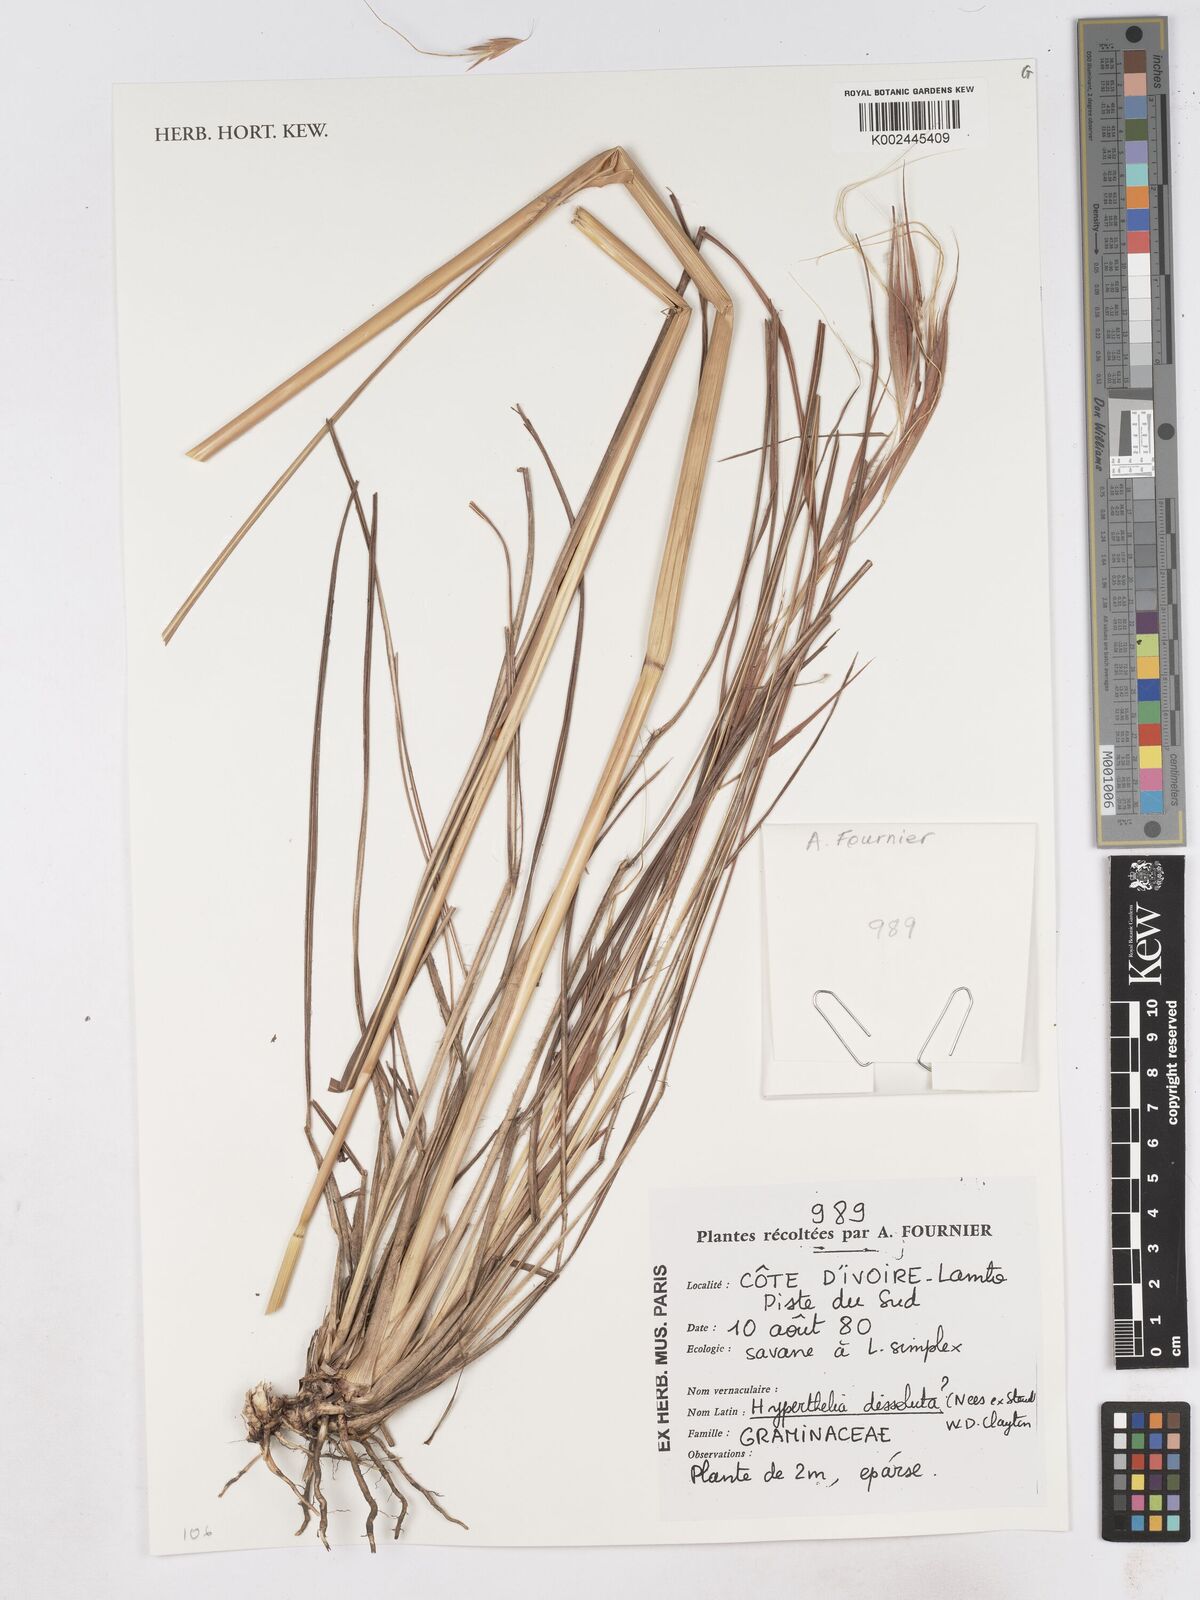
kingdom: Plantae
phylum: Tracheophyta
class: Liliopsida
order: Poales
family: Poaceae
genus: Hyperthelia
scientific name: Hyperthelia dissoluta
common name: Yellow thatching grass
